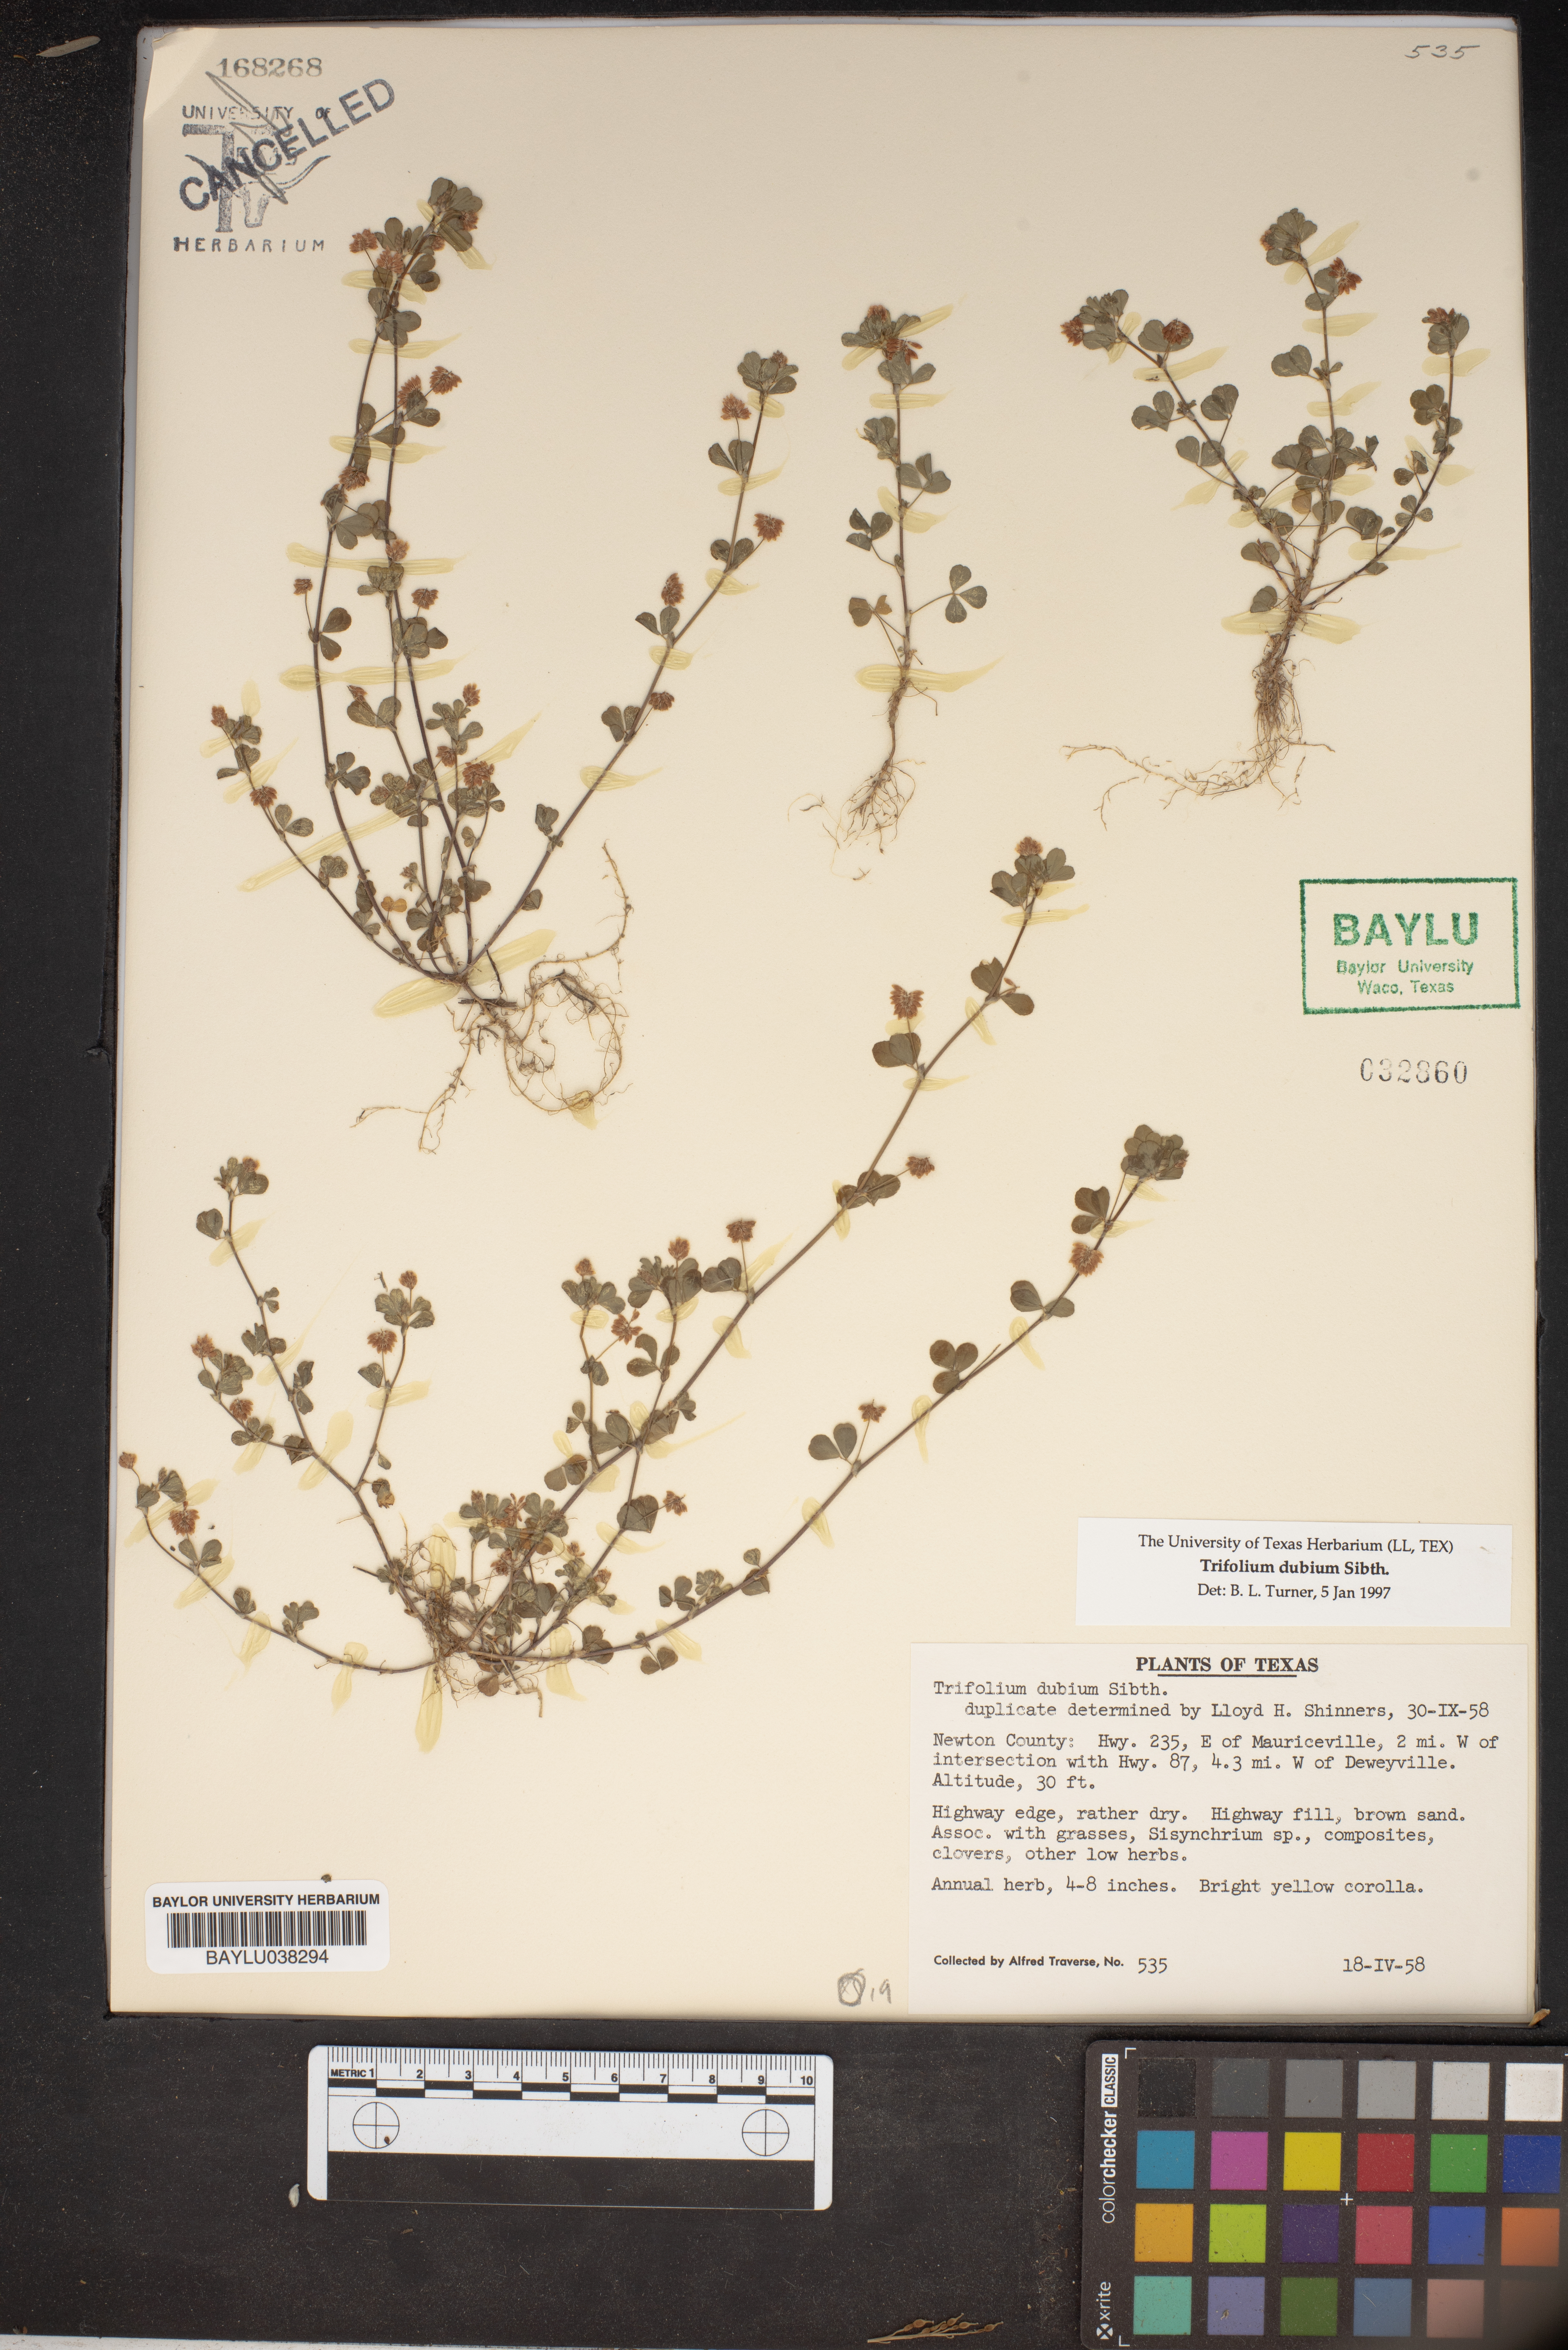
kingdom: Plantae
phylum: Tracheophyta
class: Magnoliopsida
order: Fabales
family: Fabaceae
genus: Trifolium
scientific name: Trifolium dubium
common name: Suckling clover
